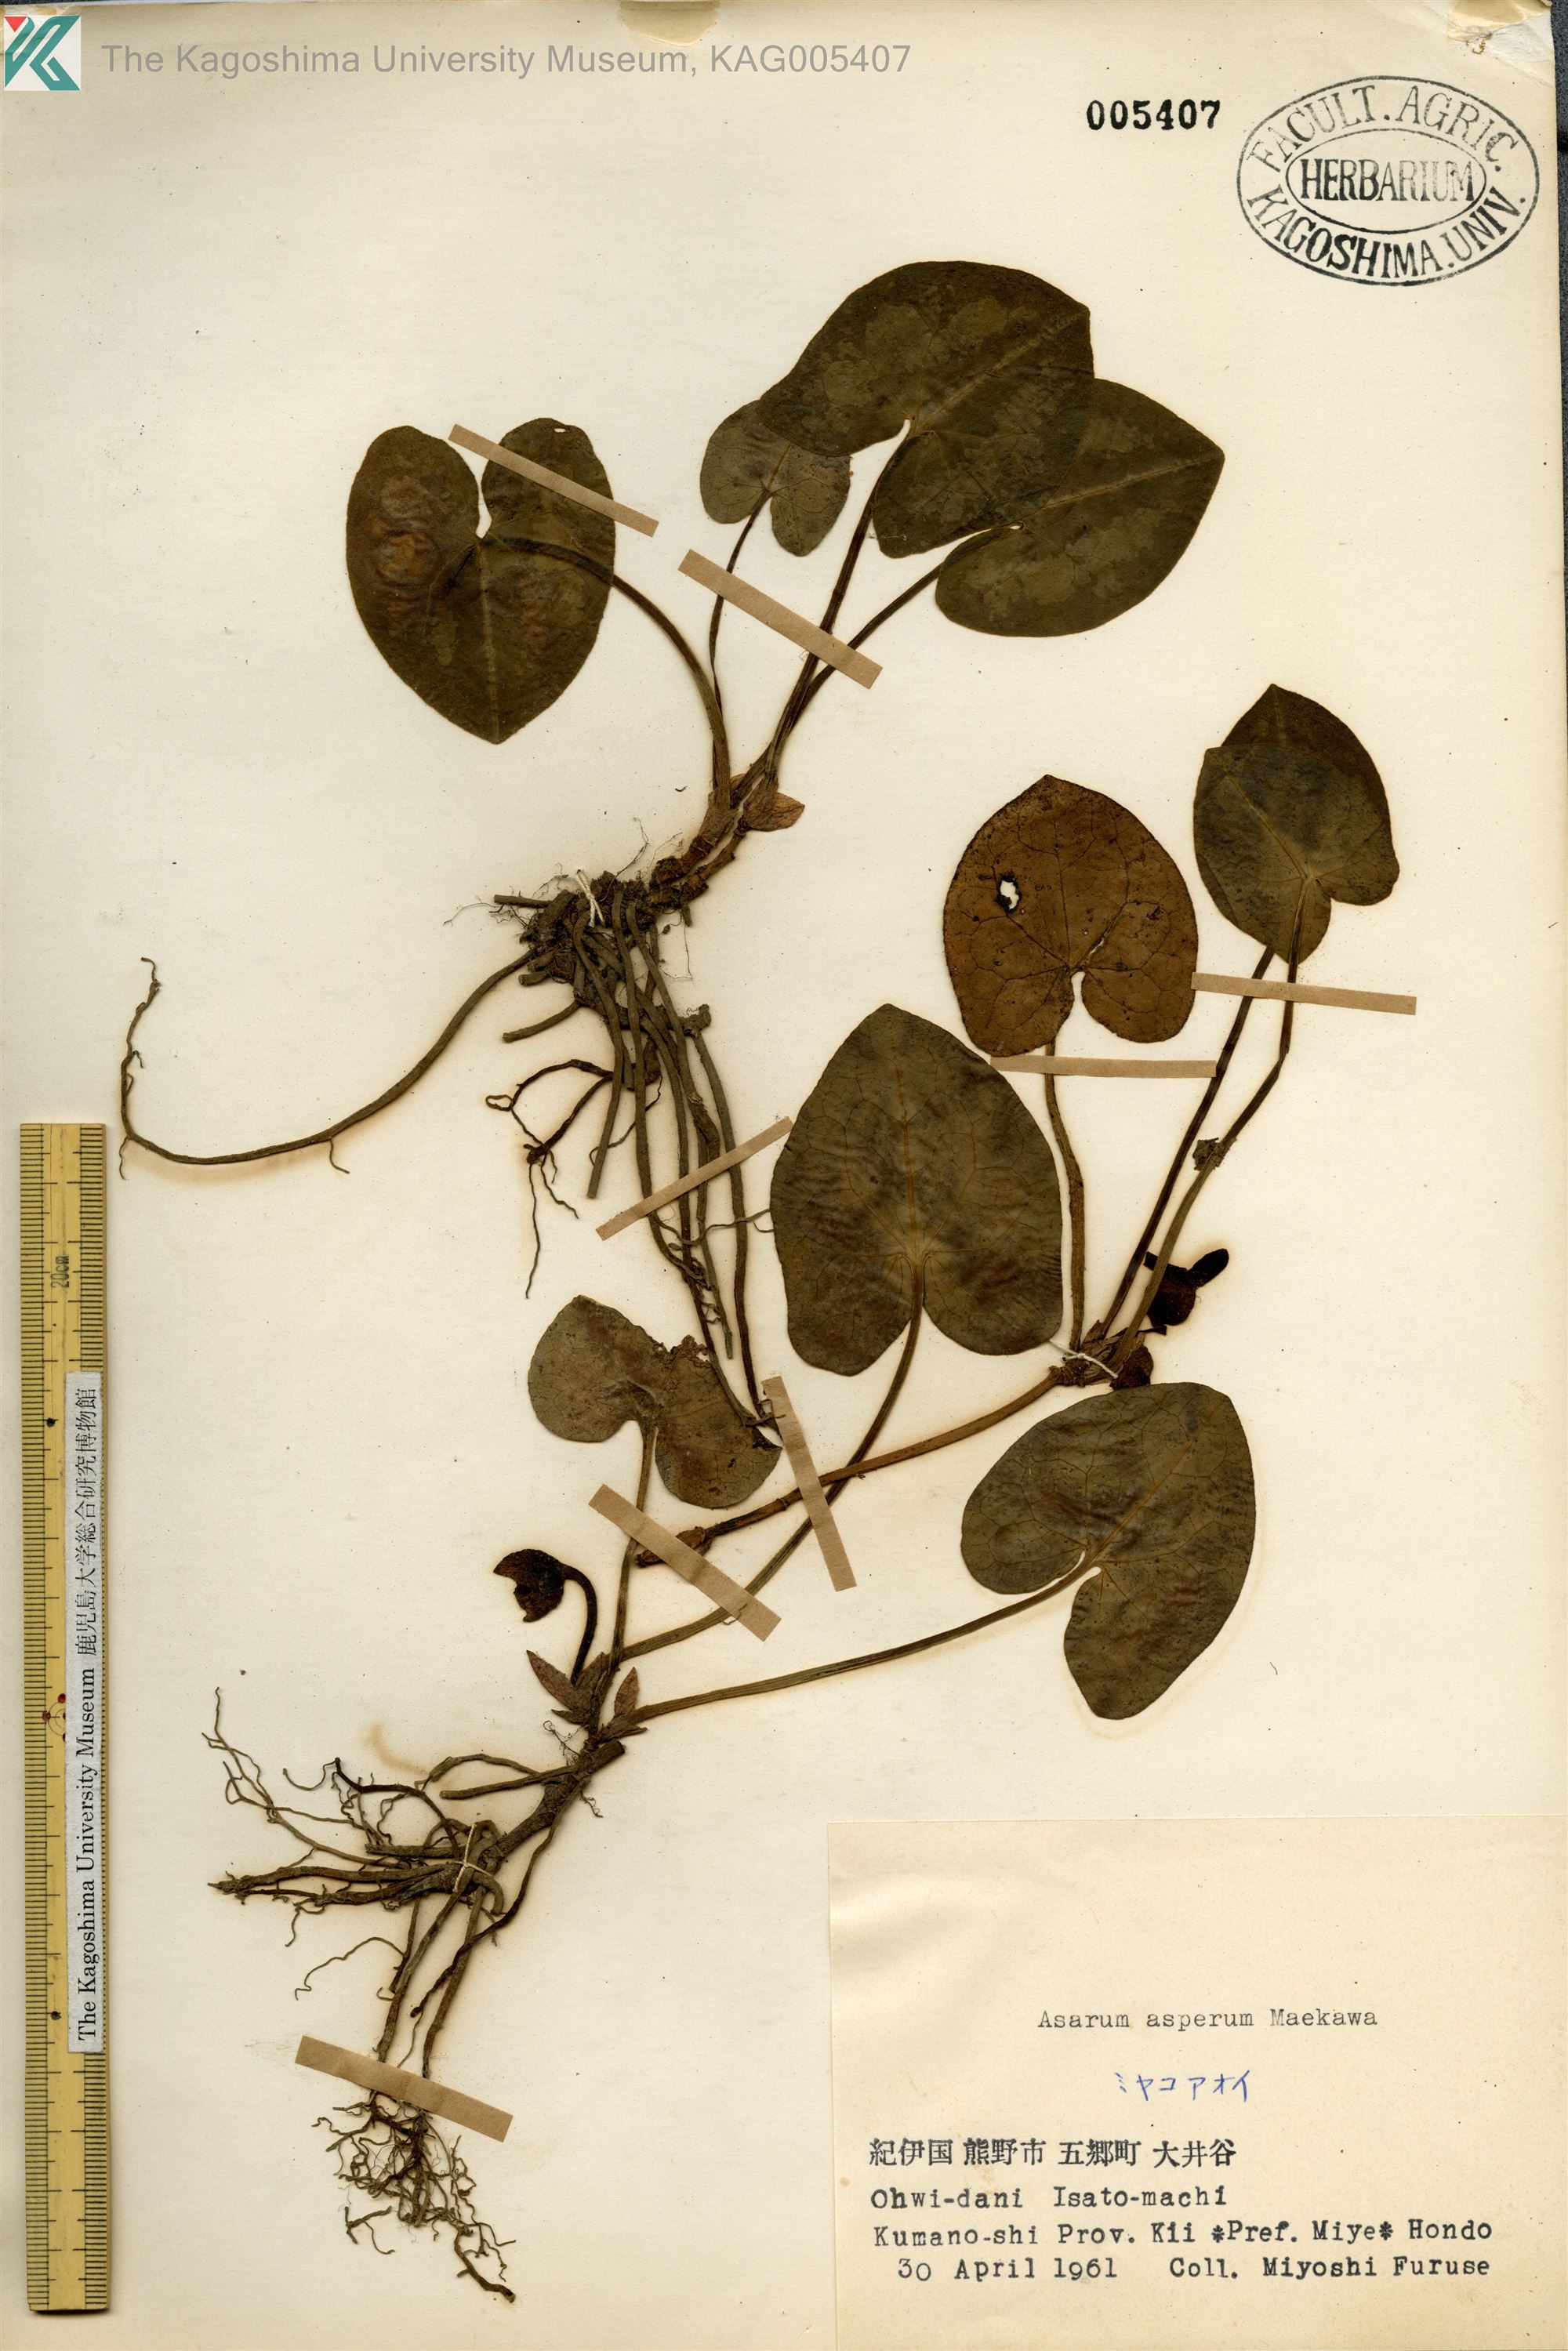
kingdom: Plantae
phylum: Tracheophyta
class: Magnoliopsida
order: Piperales
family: Aristolochiaceae
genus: Asarum
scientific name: Asarum asperum
